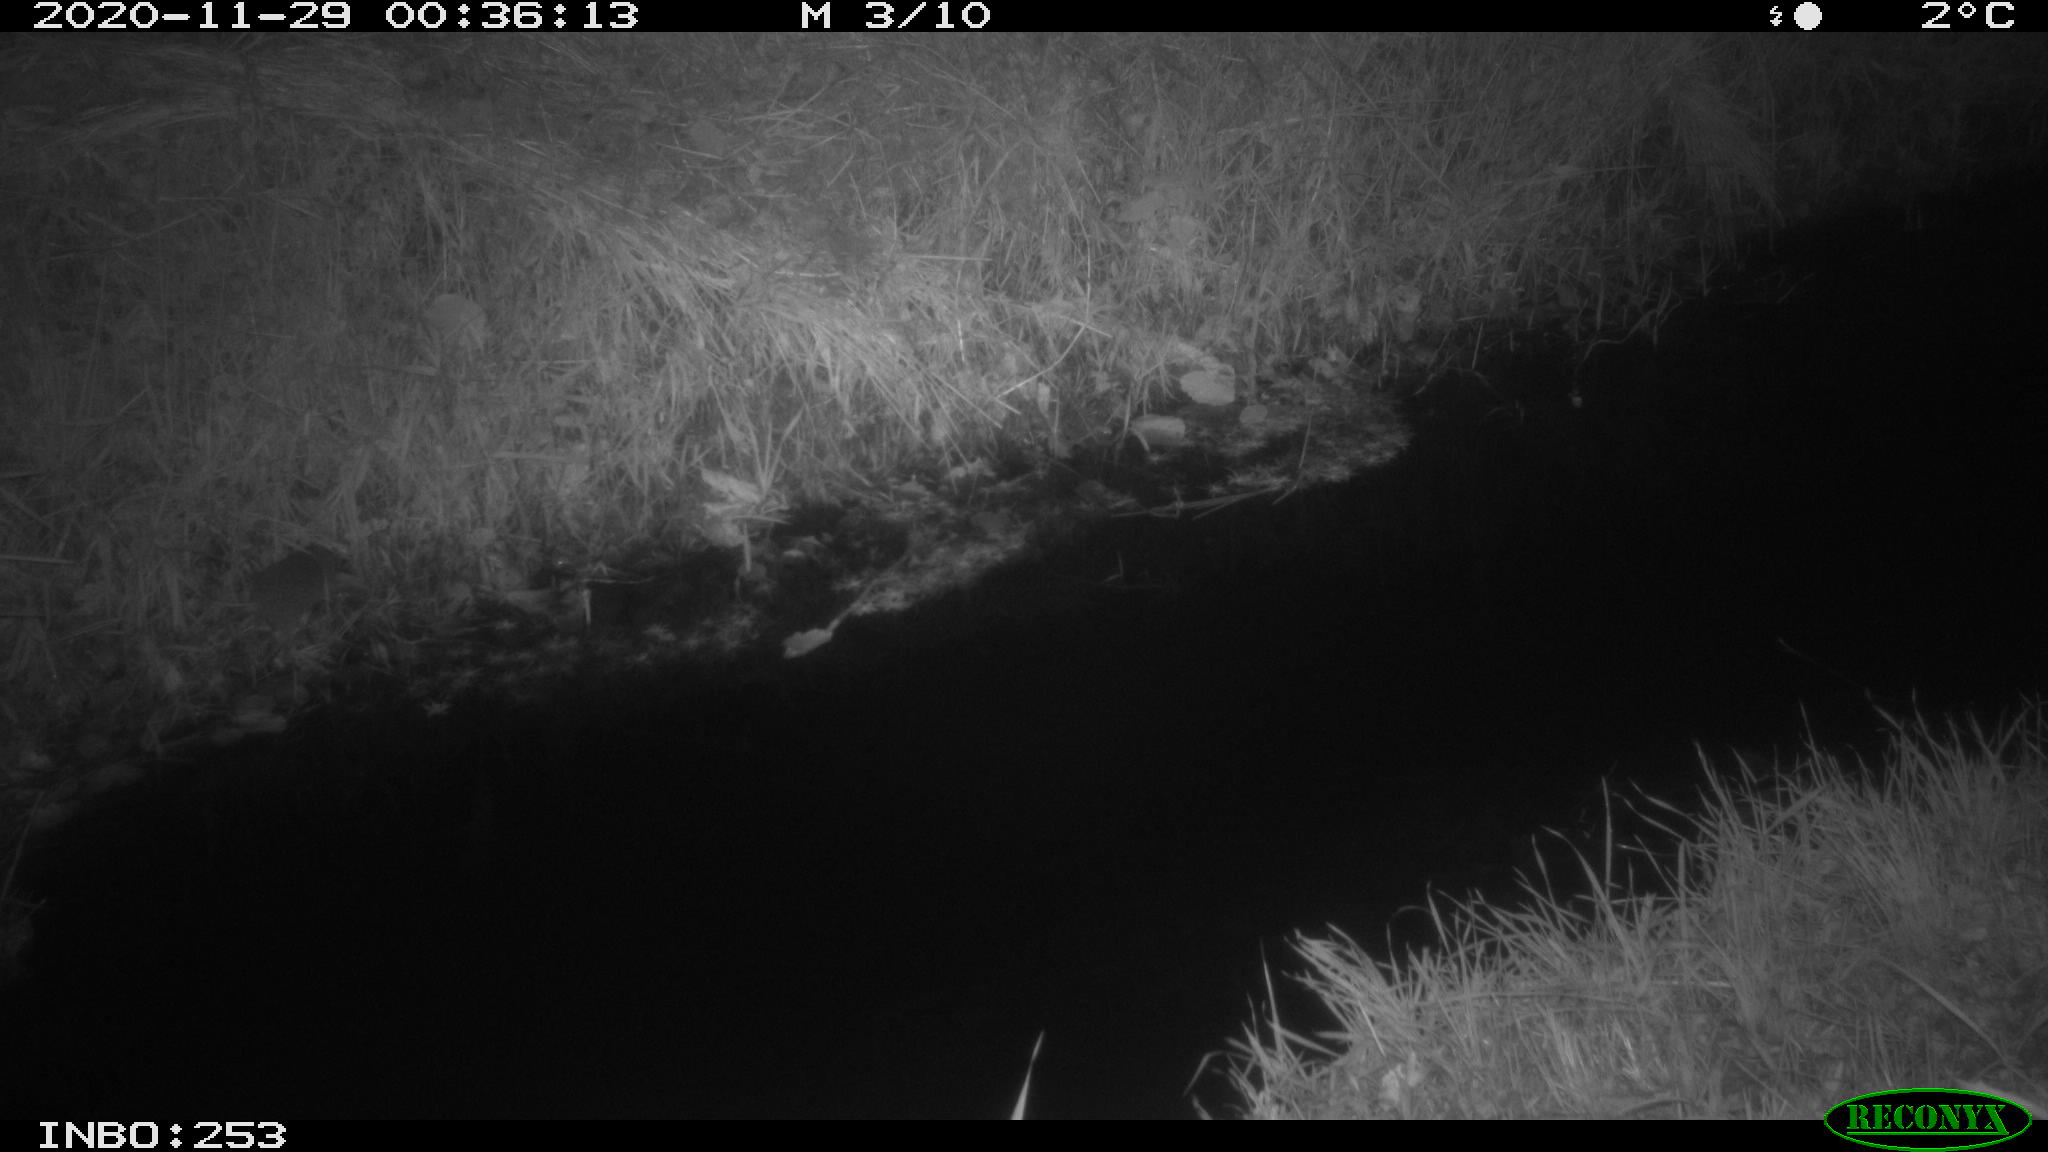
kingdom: Animalia
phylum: Chordata
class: Mammalia
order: Rodentia
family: Muridae
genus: Rattus
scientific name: Rattus norvegicus
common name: Brown rat
